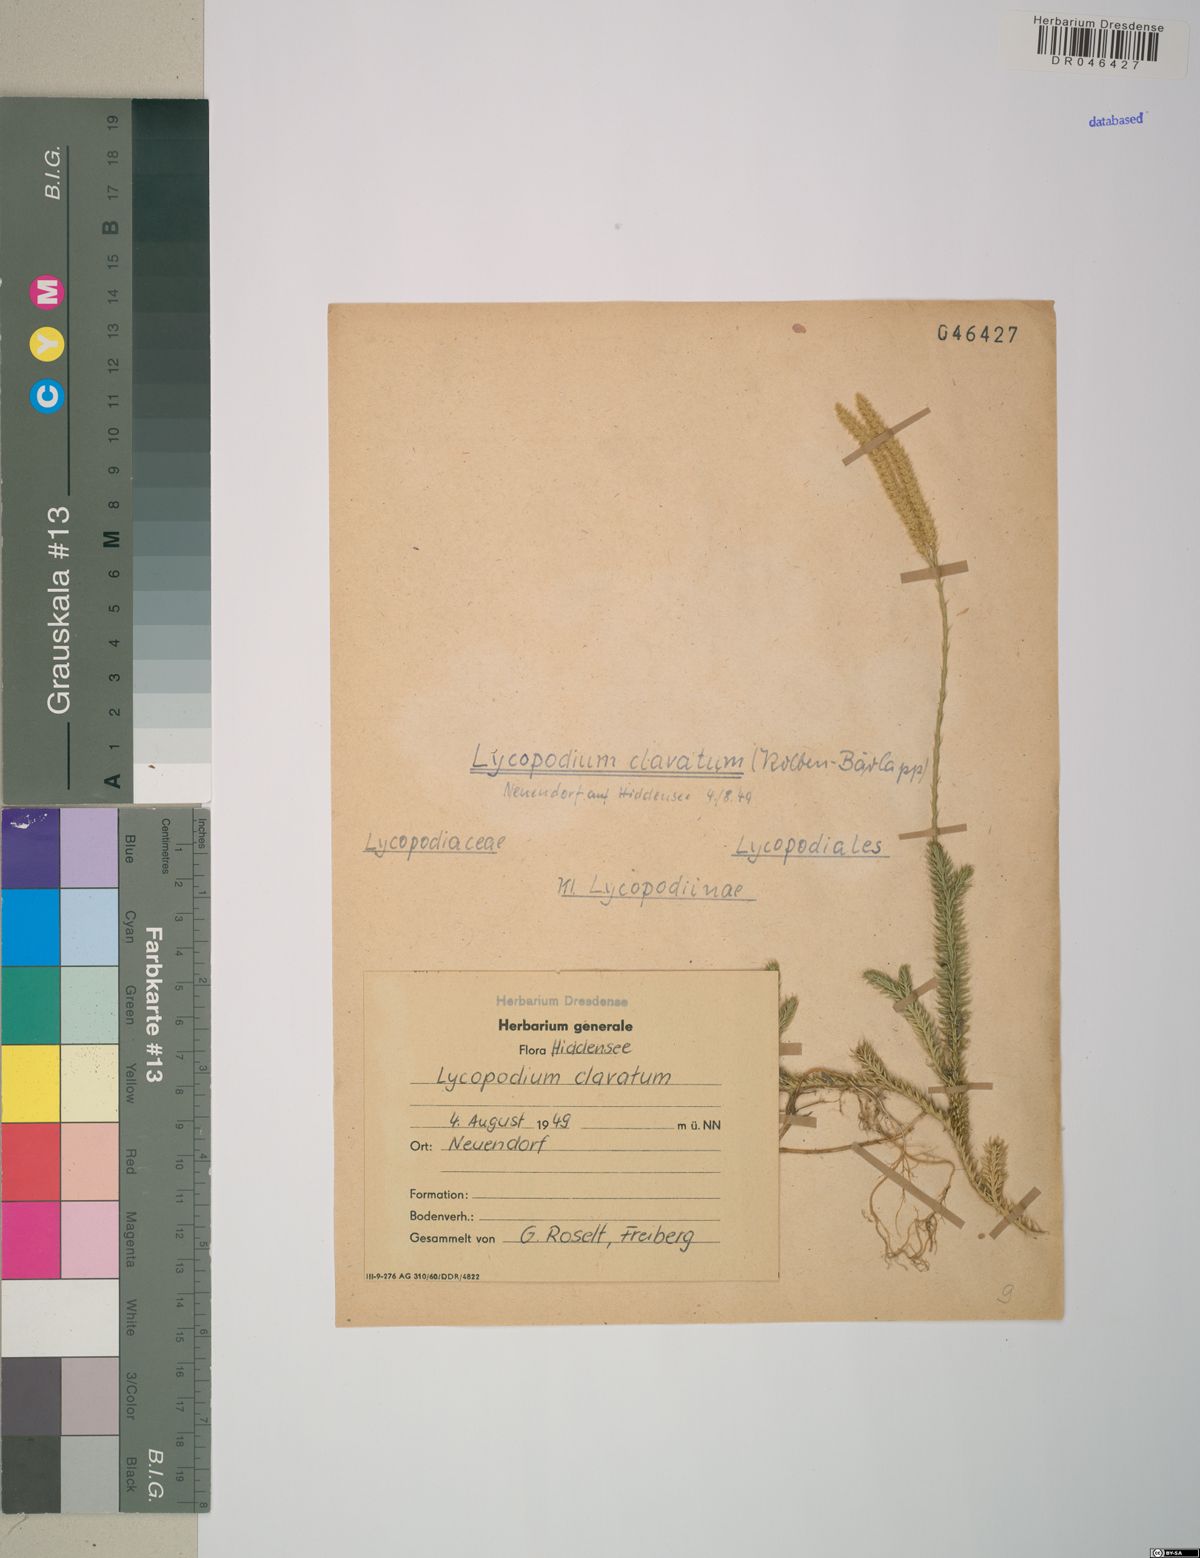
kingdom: Plantae
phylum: Tracheophyta
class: Lycopodiopsida
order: Lycopodiales
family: Lycopodiaceae
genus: Lycopodium
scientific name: Lycopodium clavatum
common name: Stag's-horn clubmoss
